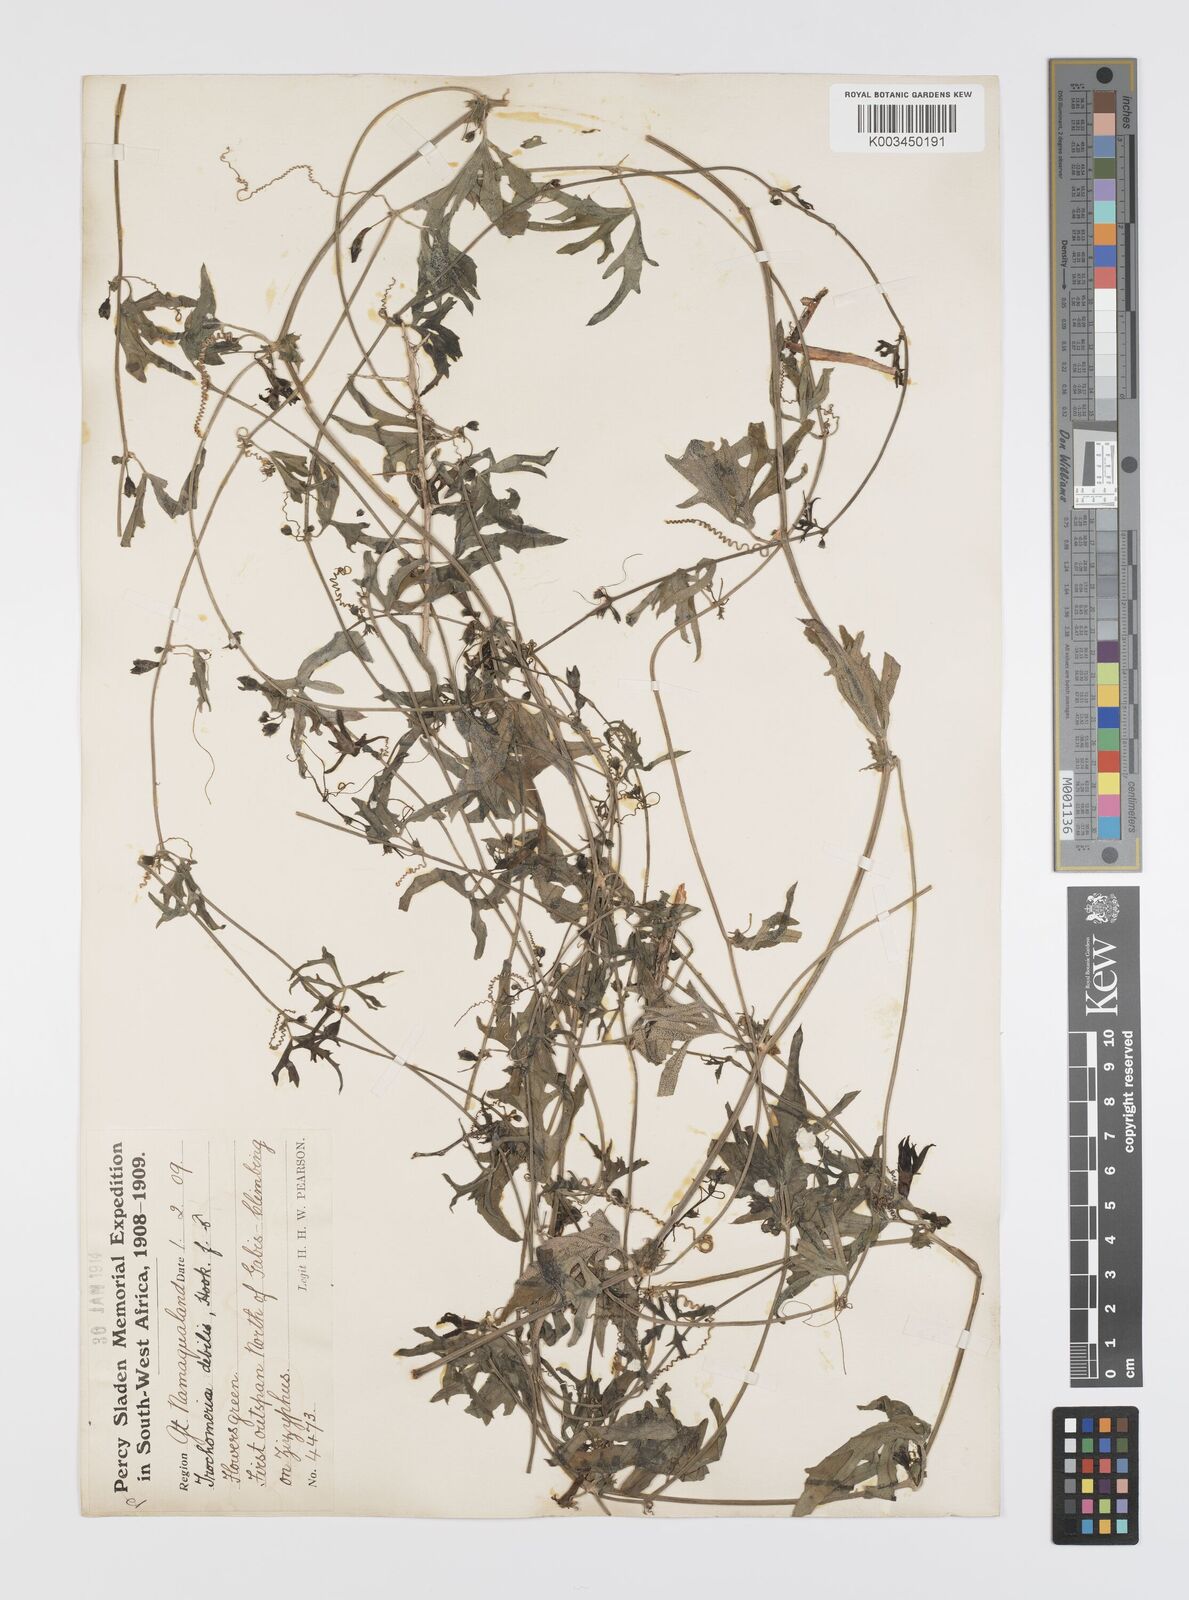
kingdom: Plantae
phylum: Tracheophyta
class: Magnoliopsida
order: Cucurbitales
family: Cucurbitaceae
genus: Trochomeria
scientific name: Trochomeria debilis
